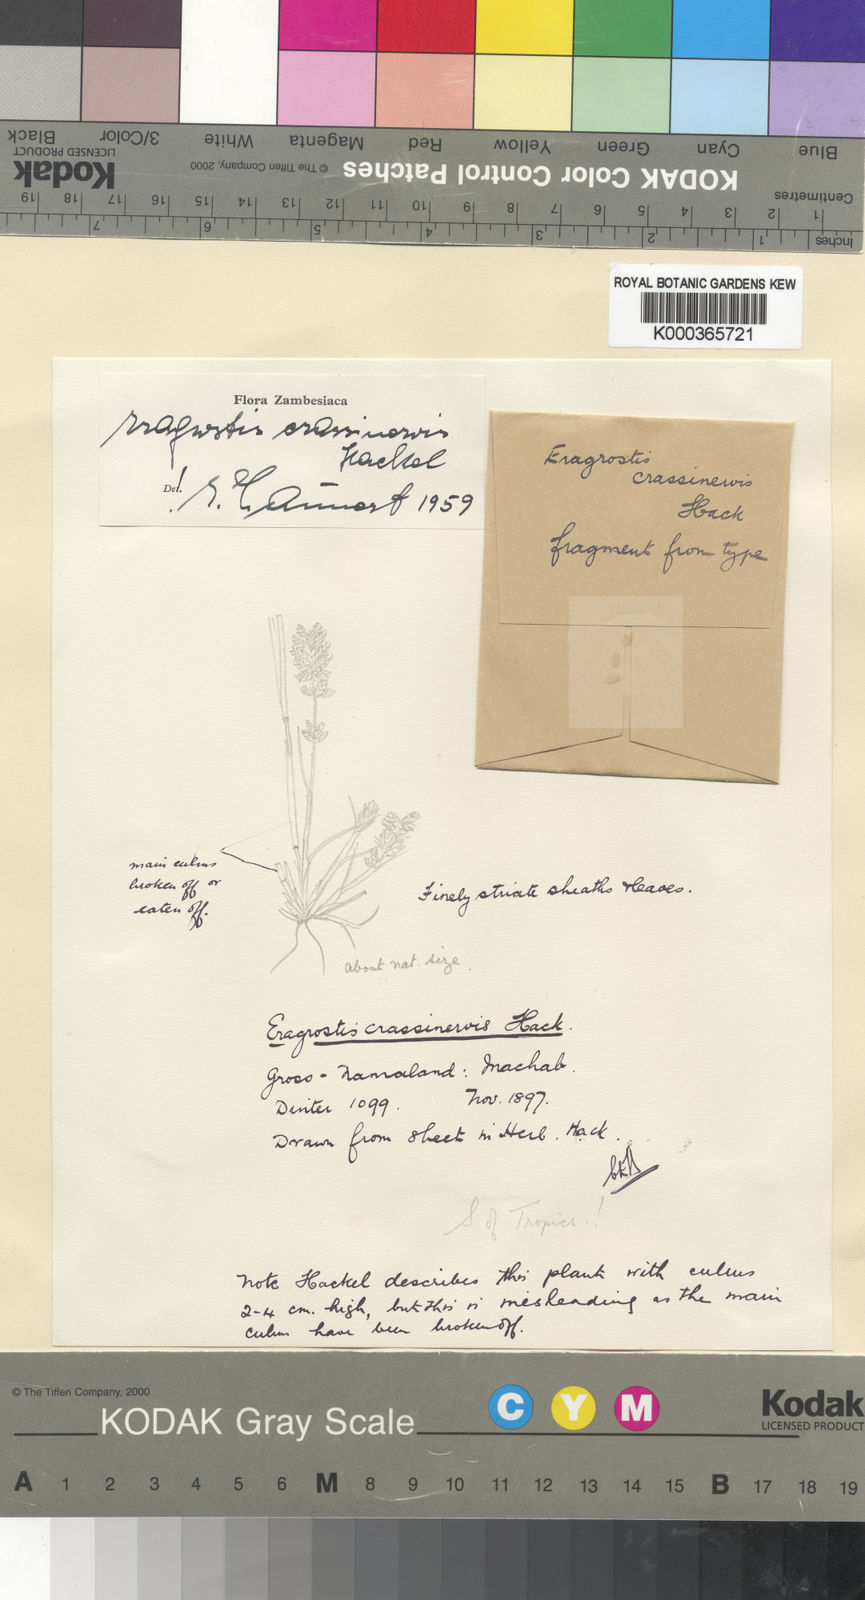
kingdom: Plantae
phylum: Tracheophyta
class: Liliopsida
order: Poales
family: Poaceae
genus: Eragrostis
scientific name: Eragrostis crassinervis
